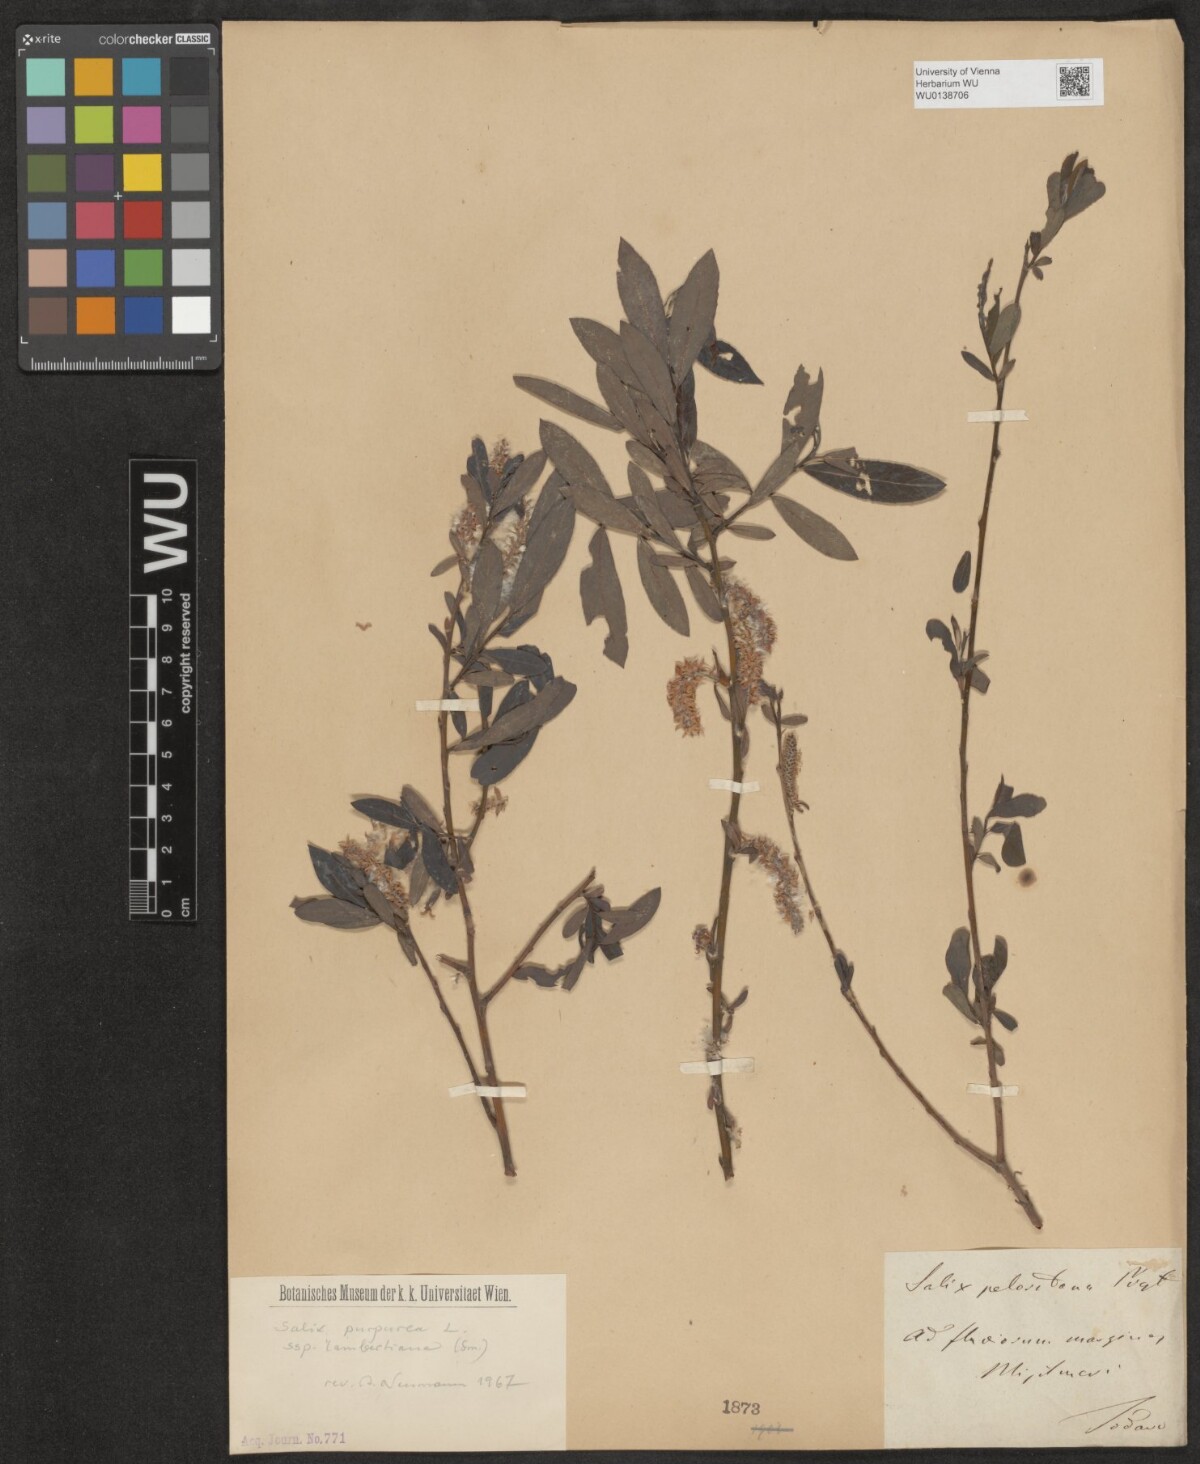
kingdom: Plantae
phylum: Tracheophyta
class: Magnoliopsida
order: Malpighiales
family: Salicaceae
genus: Salix
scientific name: Salix peloritana
